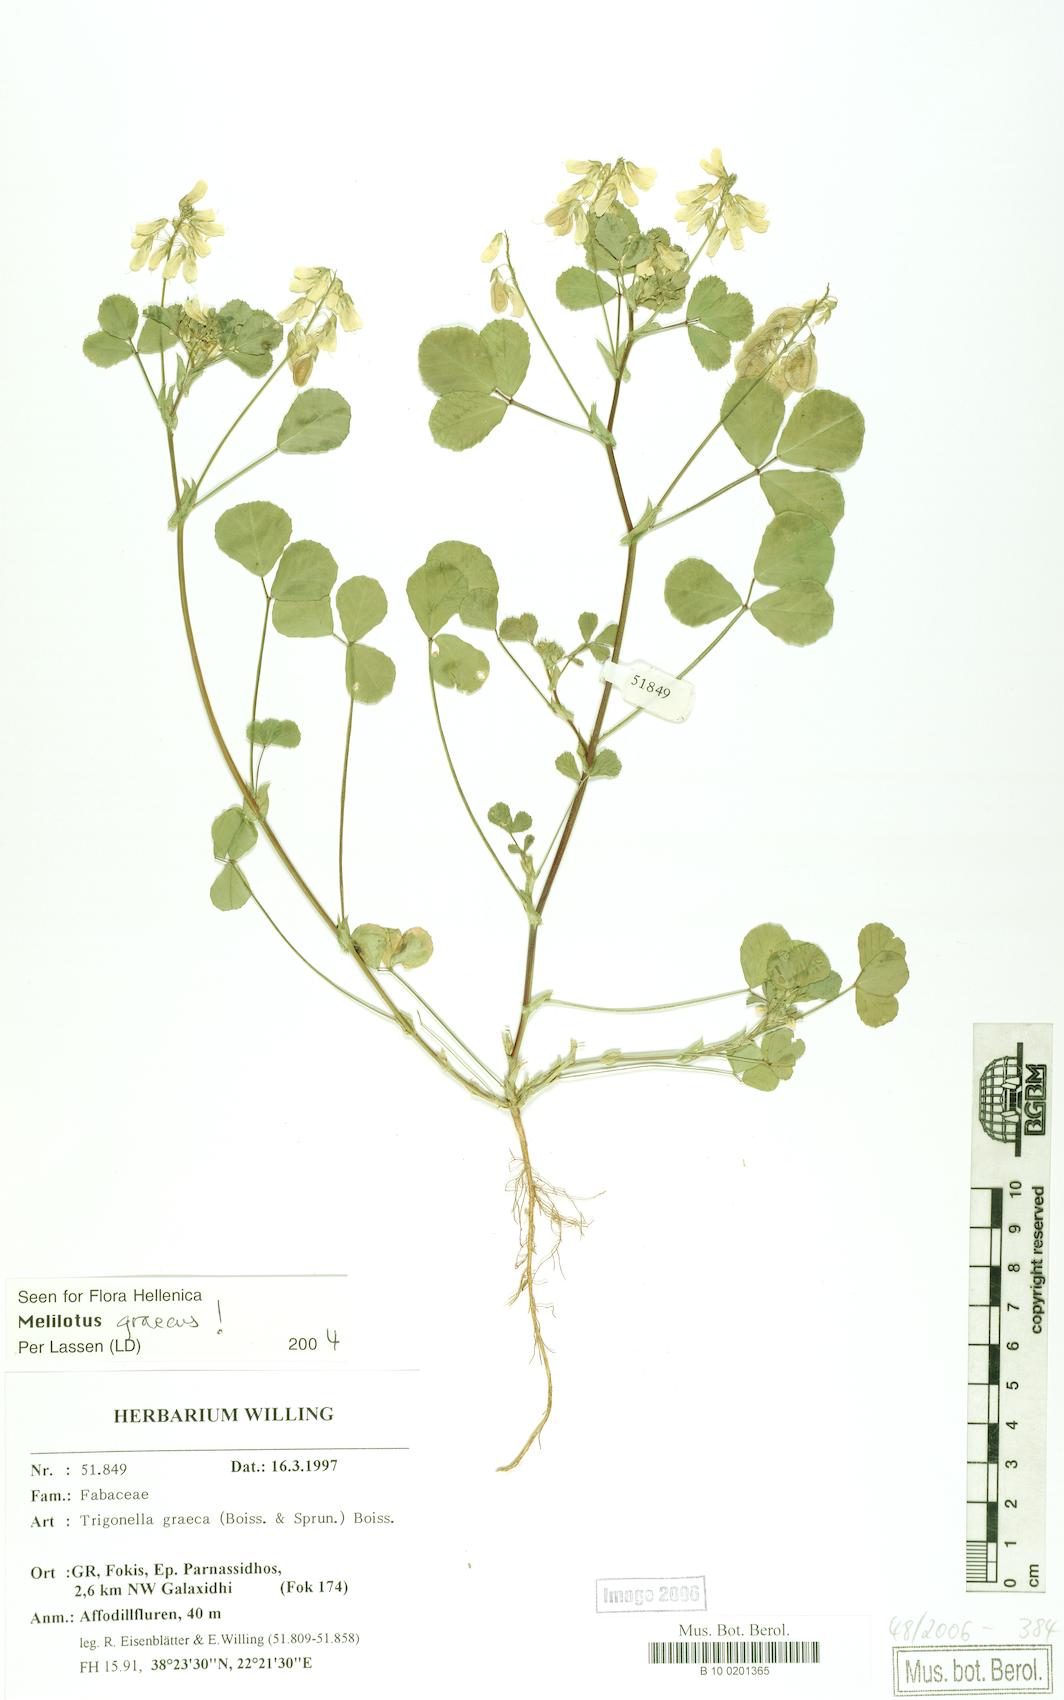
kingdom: Plantae
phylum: Tracheophyta
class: Magnoliopsida
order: Fabales
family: Fabaceae
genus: Trigonella
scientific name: Trigonella graeca
